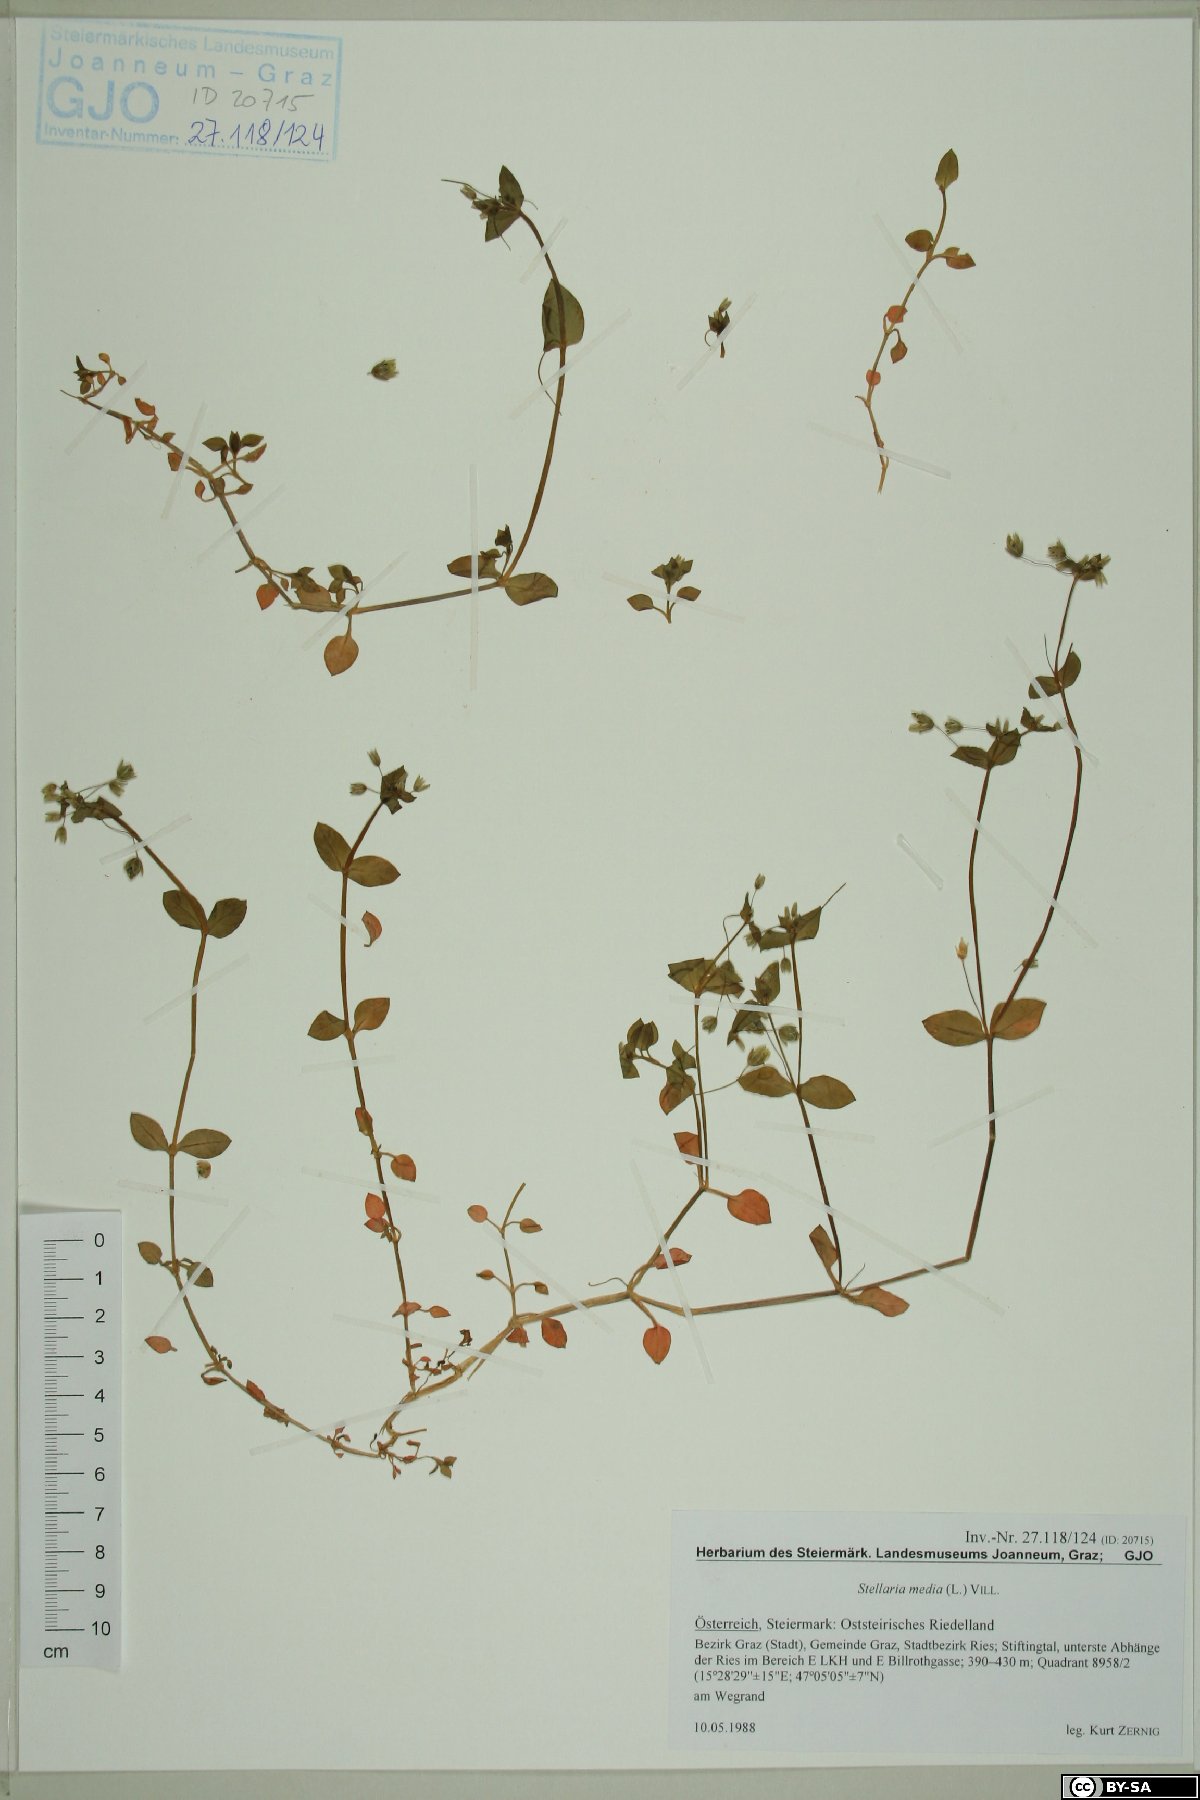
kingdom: Plantae
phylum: Tracheophyta
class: Magnoliopsida
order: Caryophyllales
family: Caryophyllaceae
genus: Stellaria
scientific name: Stellaria media
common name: Common chickweed
